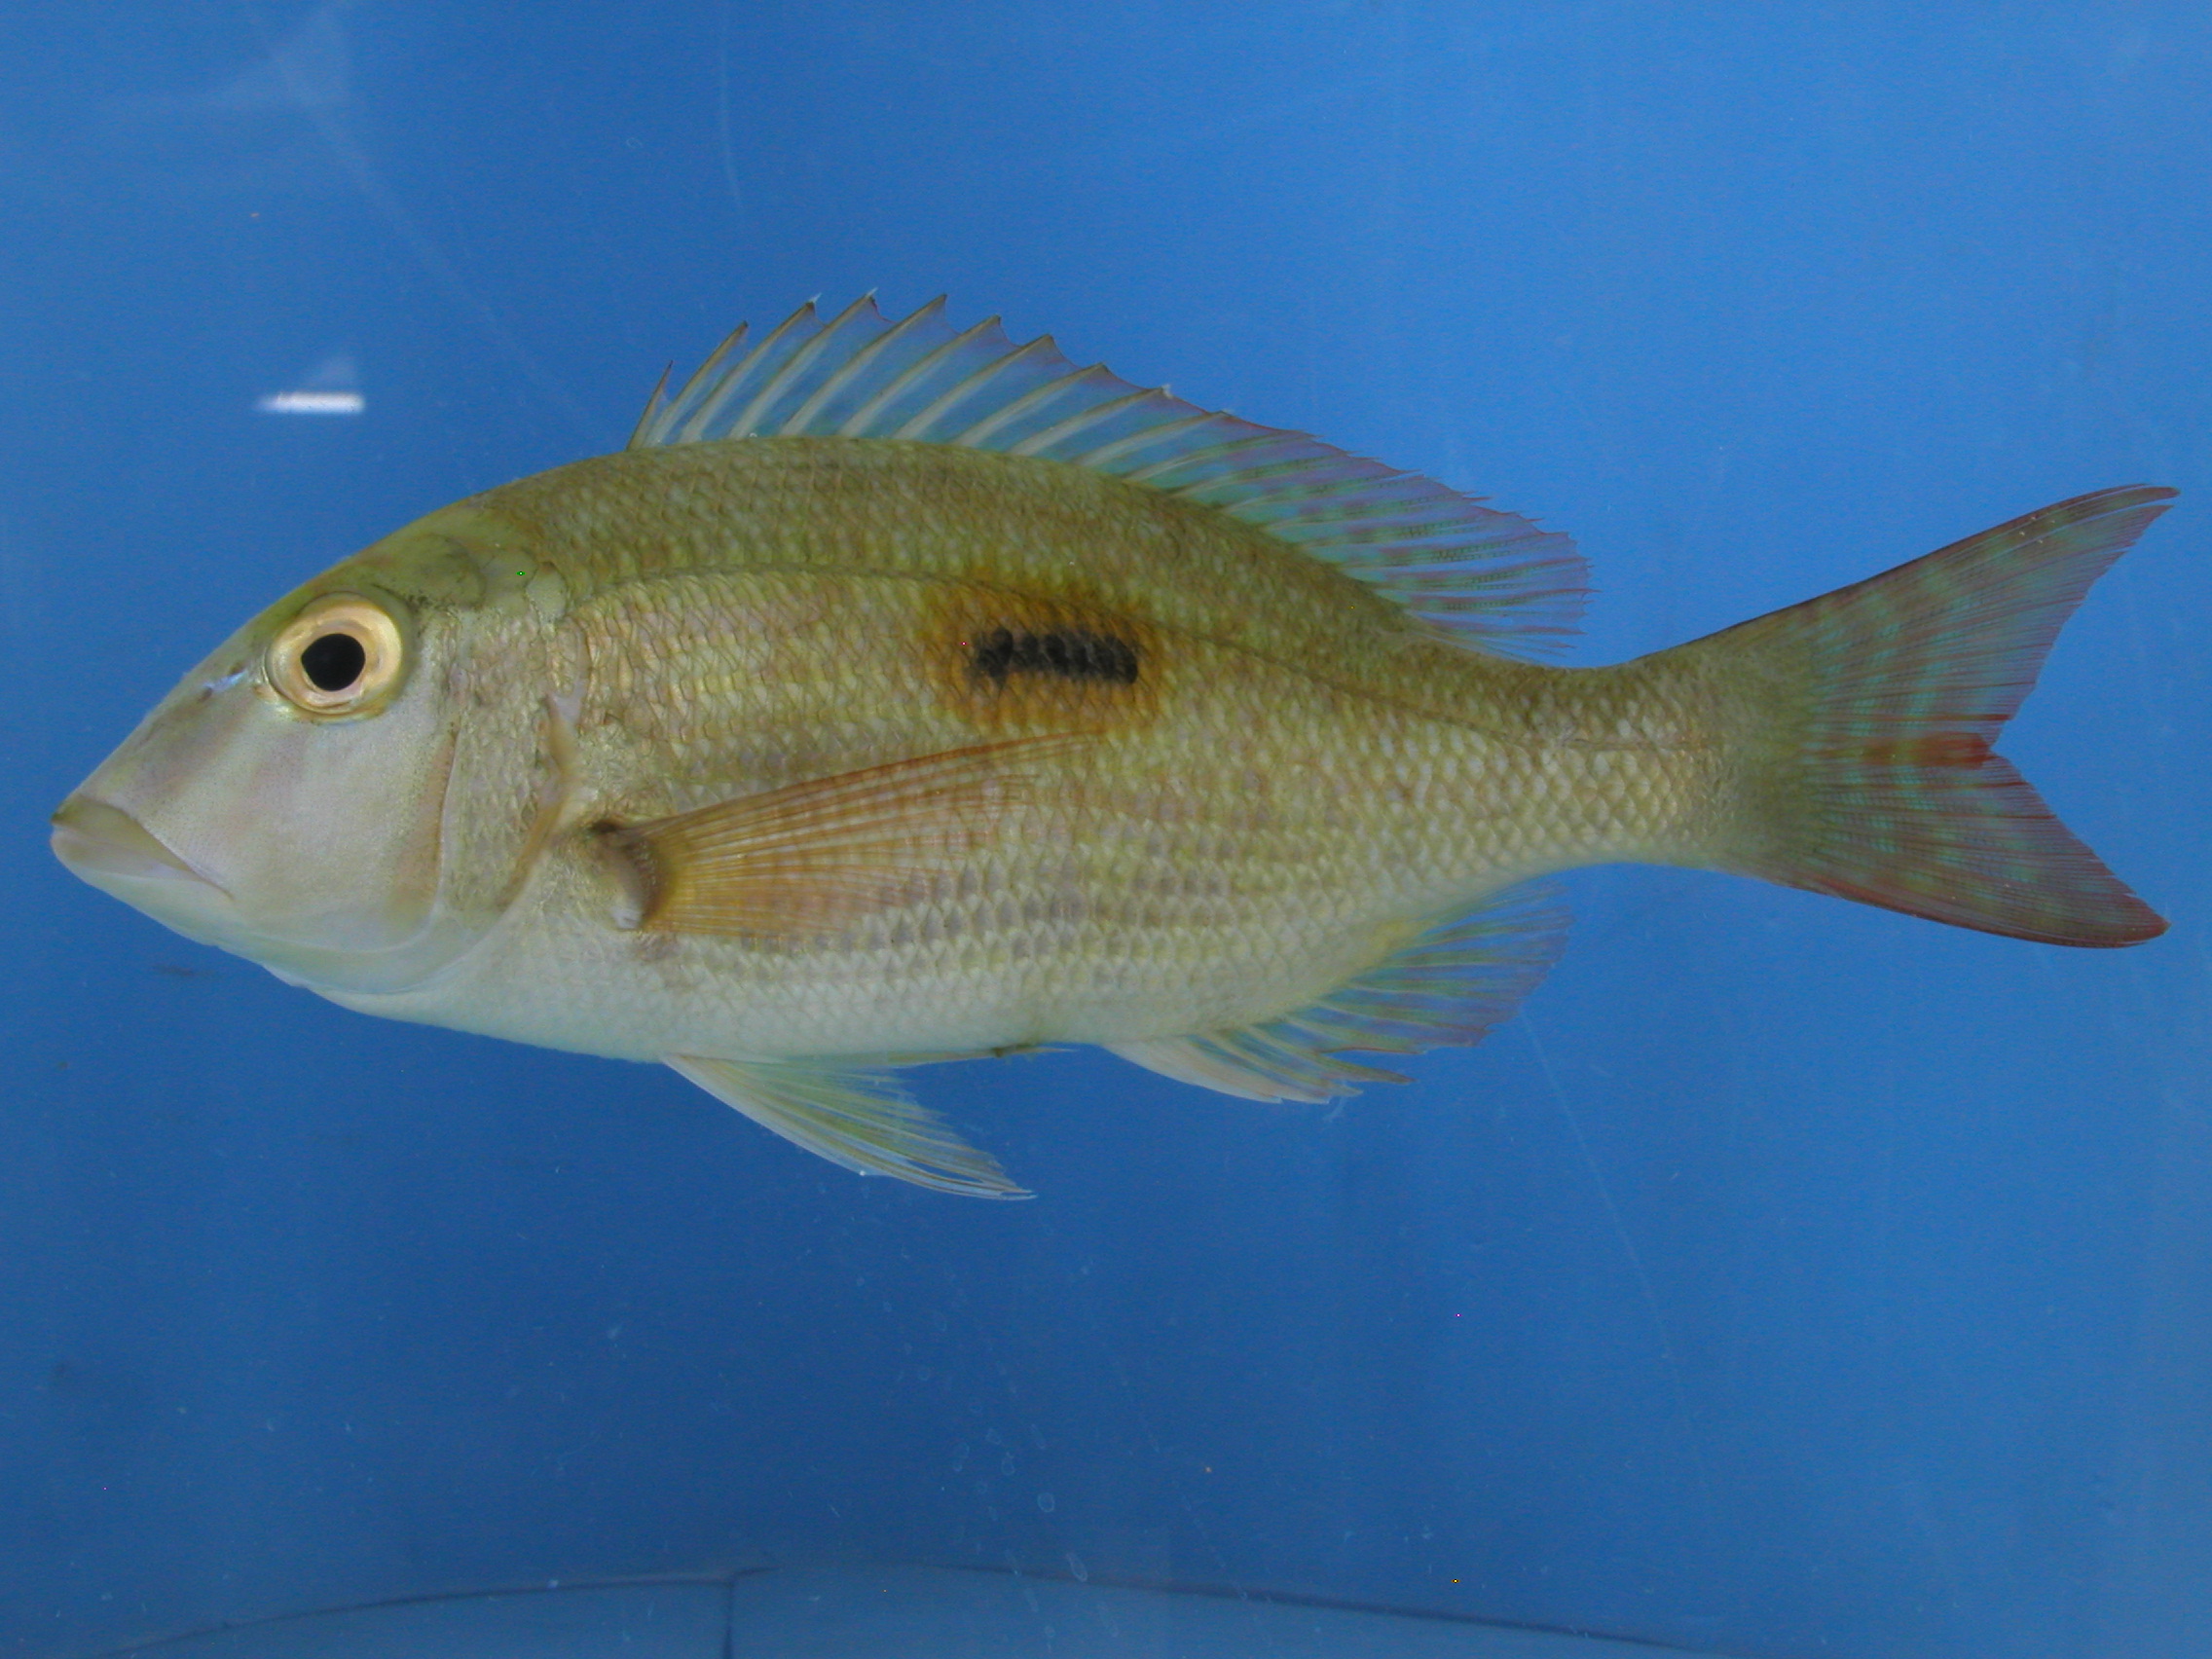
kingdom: Animalia
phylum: Chordata
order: Perciformes
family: Lethrinidae
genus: Lethrinus
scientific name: Lethrinus harak
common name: Blackspot emperor
